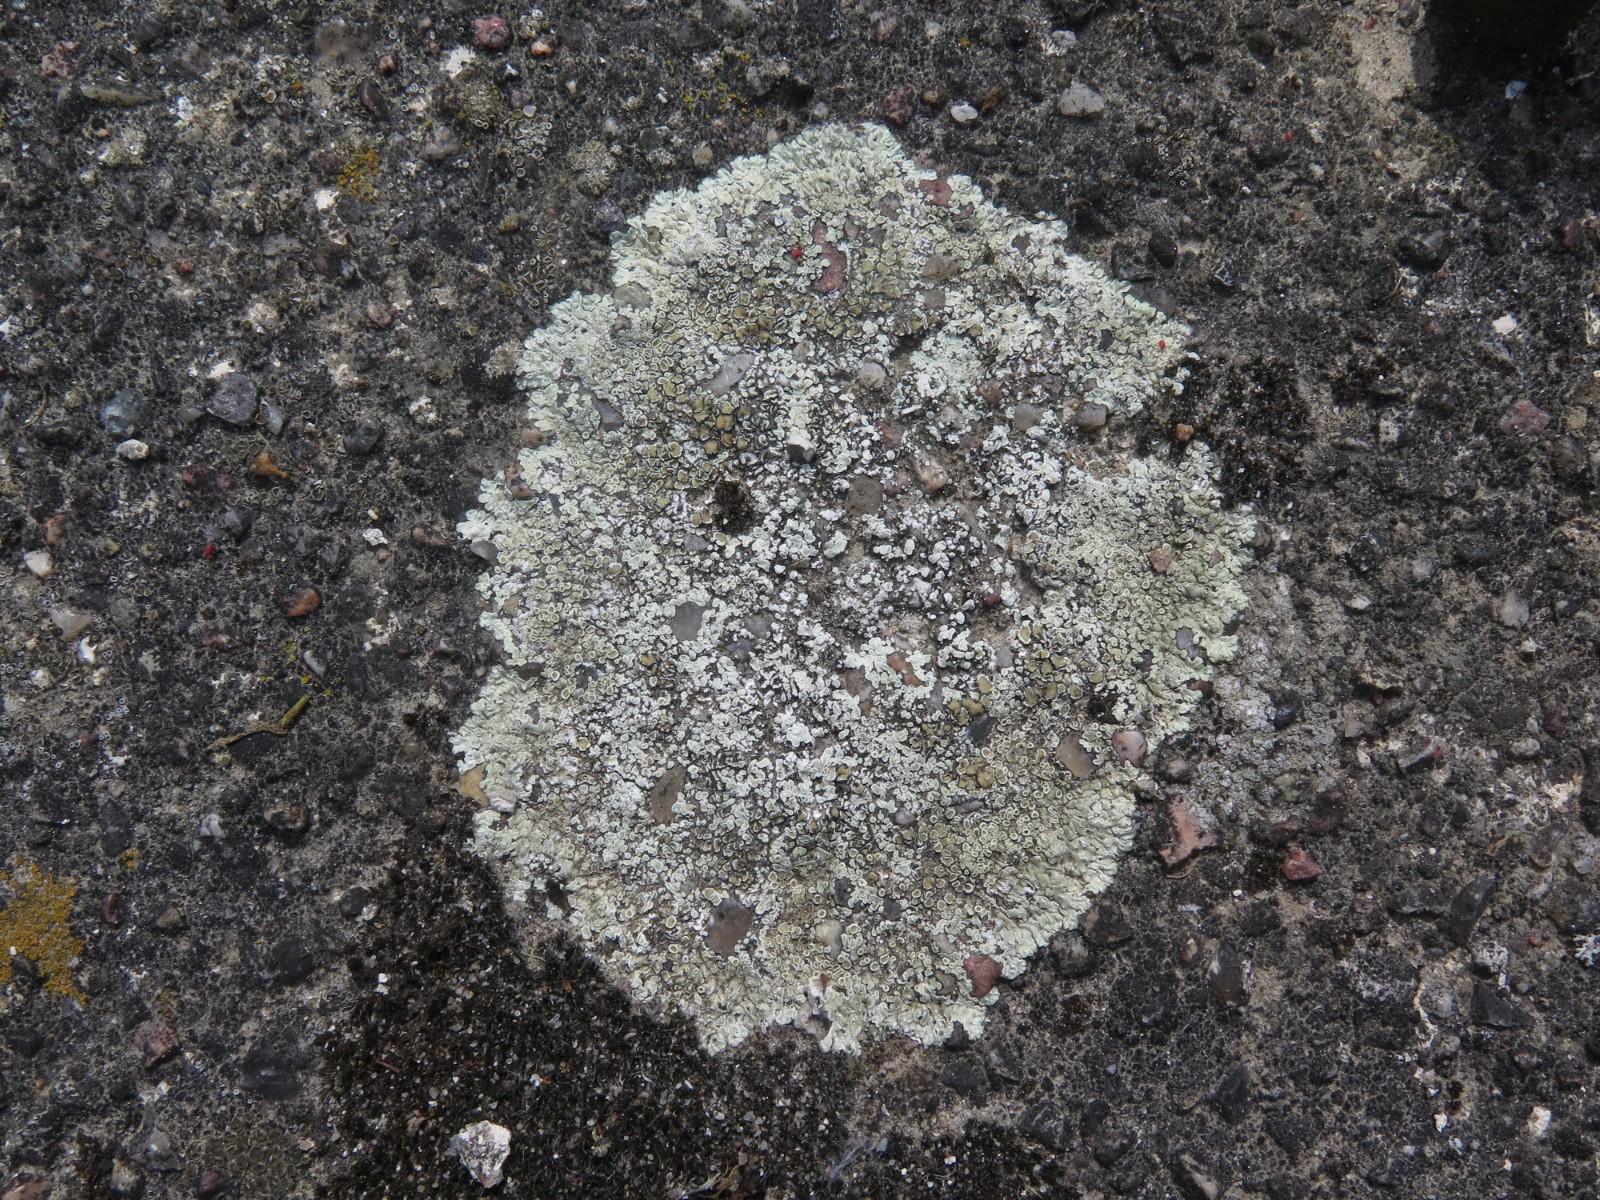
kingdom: Fungi
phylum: Ascomycota
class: Lecanoromycetes
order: Lecanorales
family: Lecanoraceae
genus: Protoparmeliopsis
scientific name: Protoparmeliopsis muralis
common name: randfliget kantskivelav
